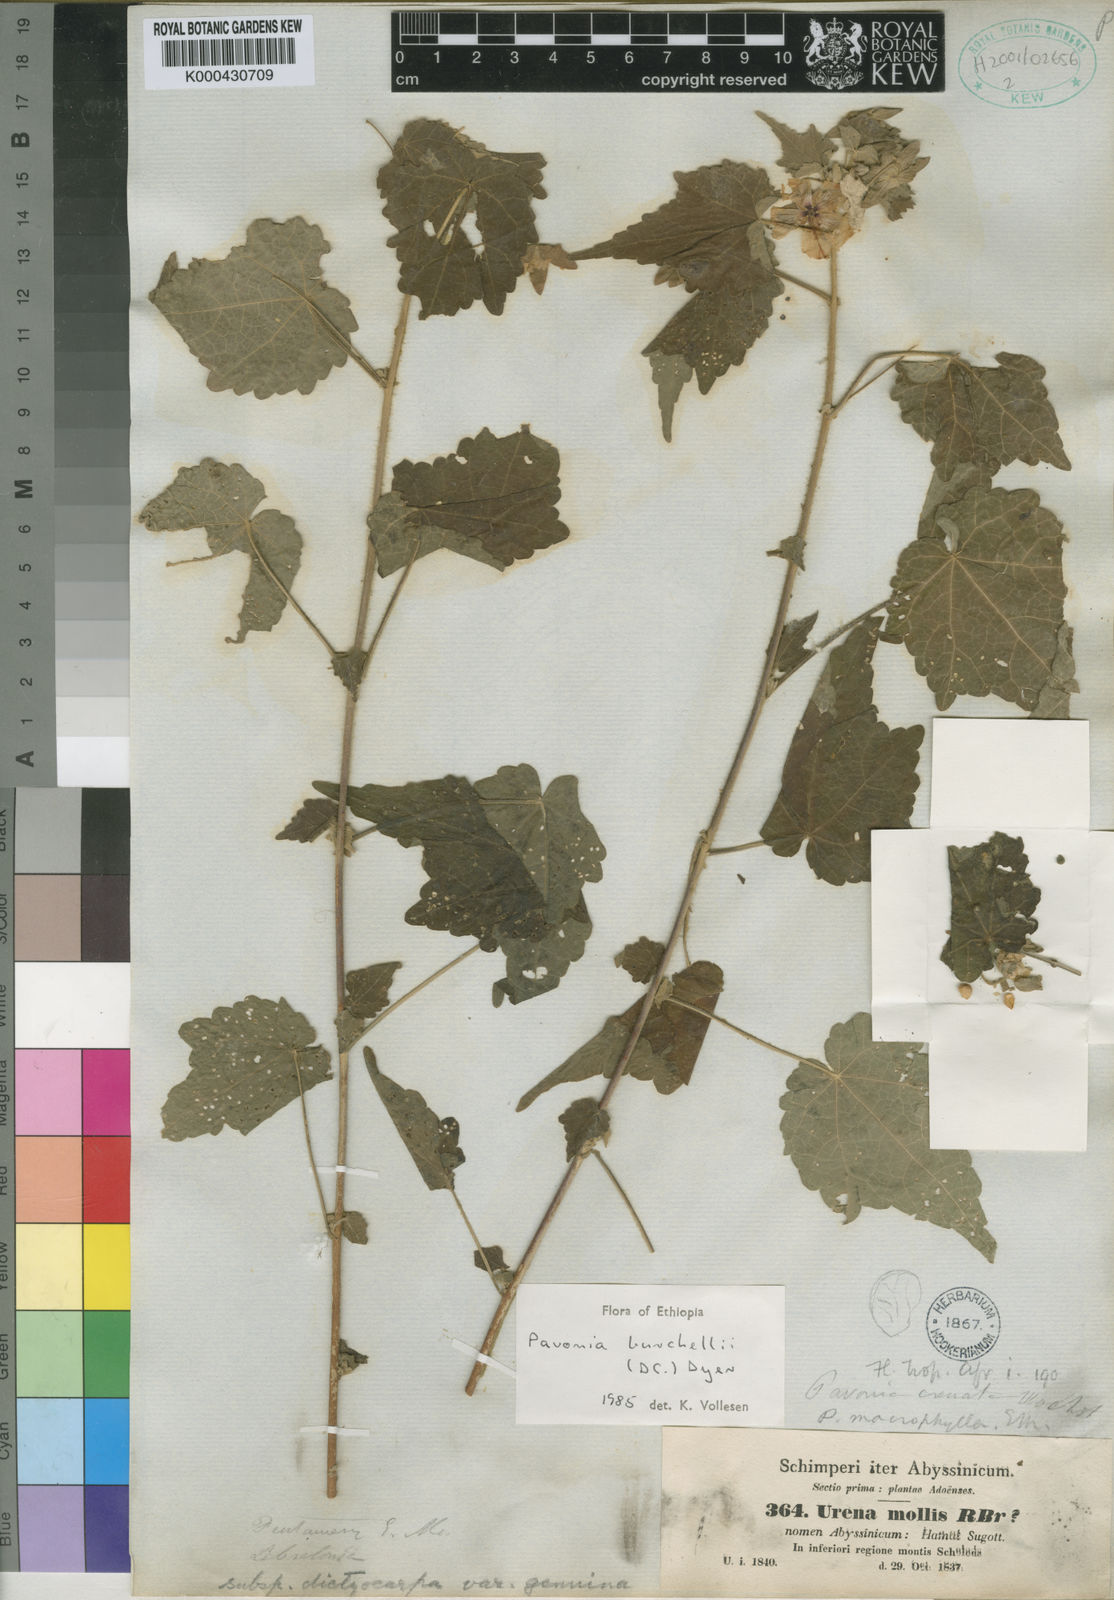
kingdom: Plantae
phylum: Tracheophyta
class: Magnoliopsida
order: Malvales
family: Malvaceae
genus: Pavonia
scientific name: Pavonia burchellii
